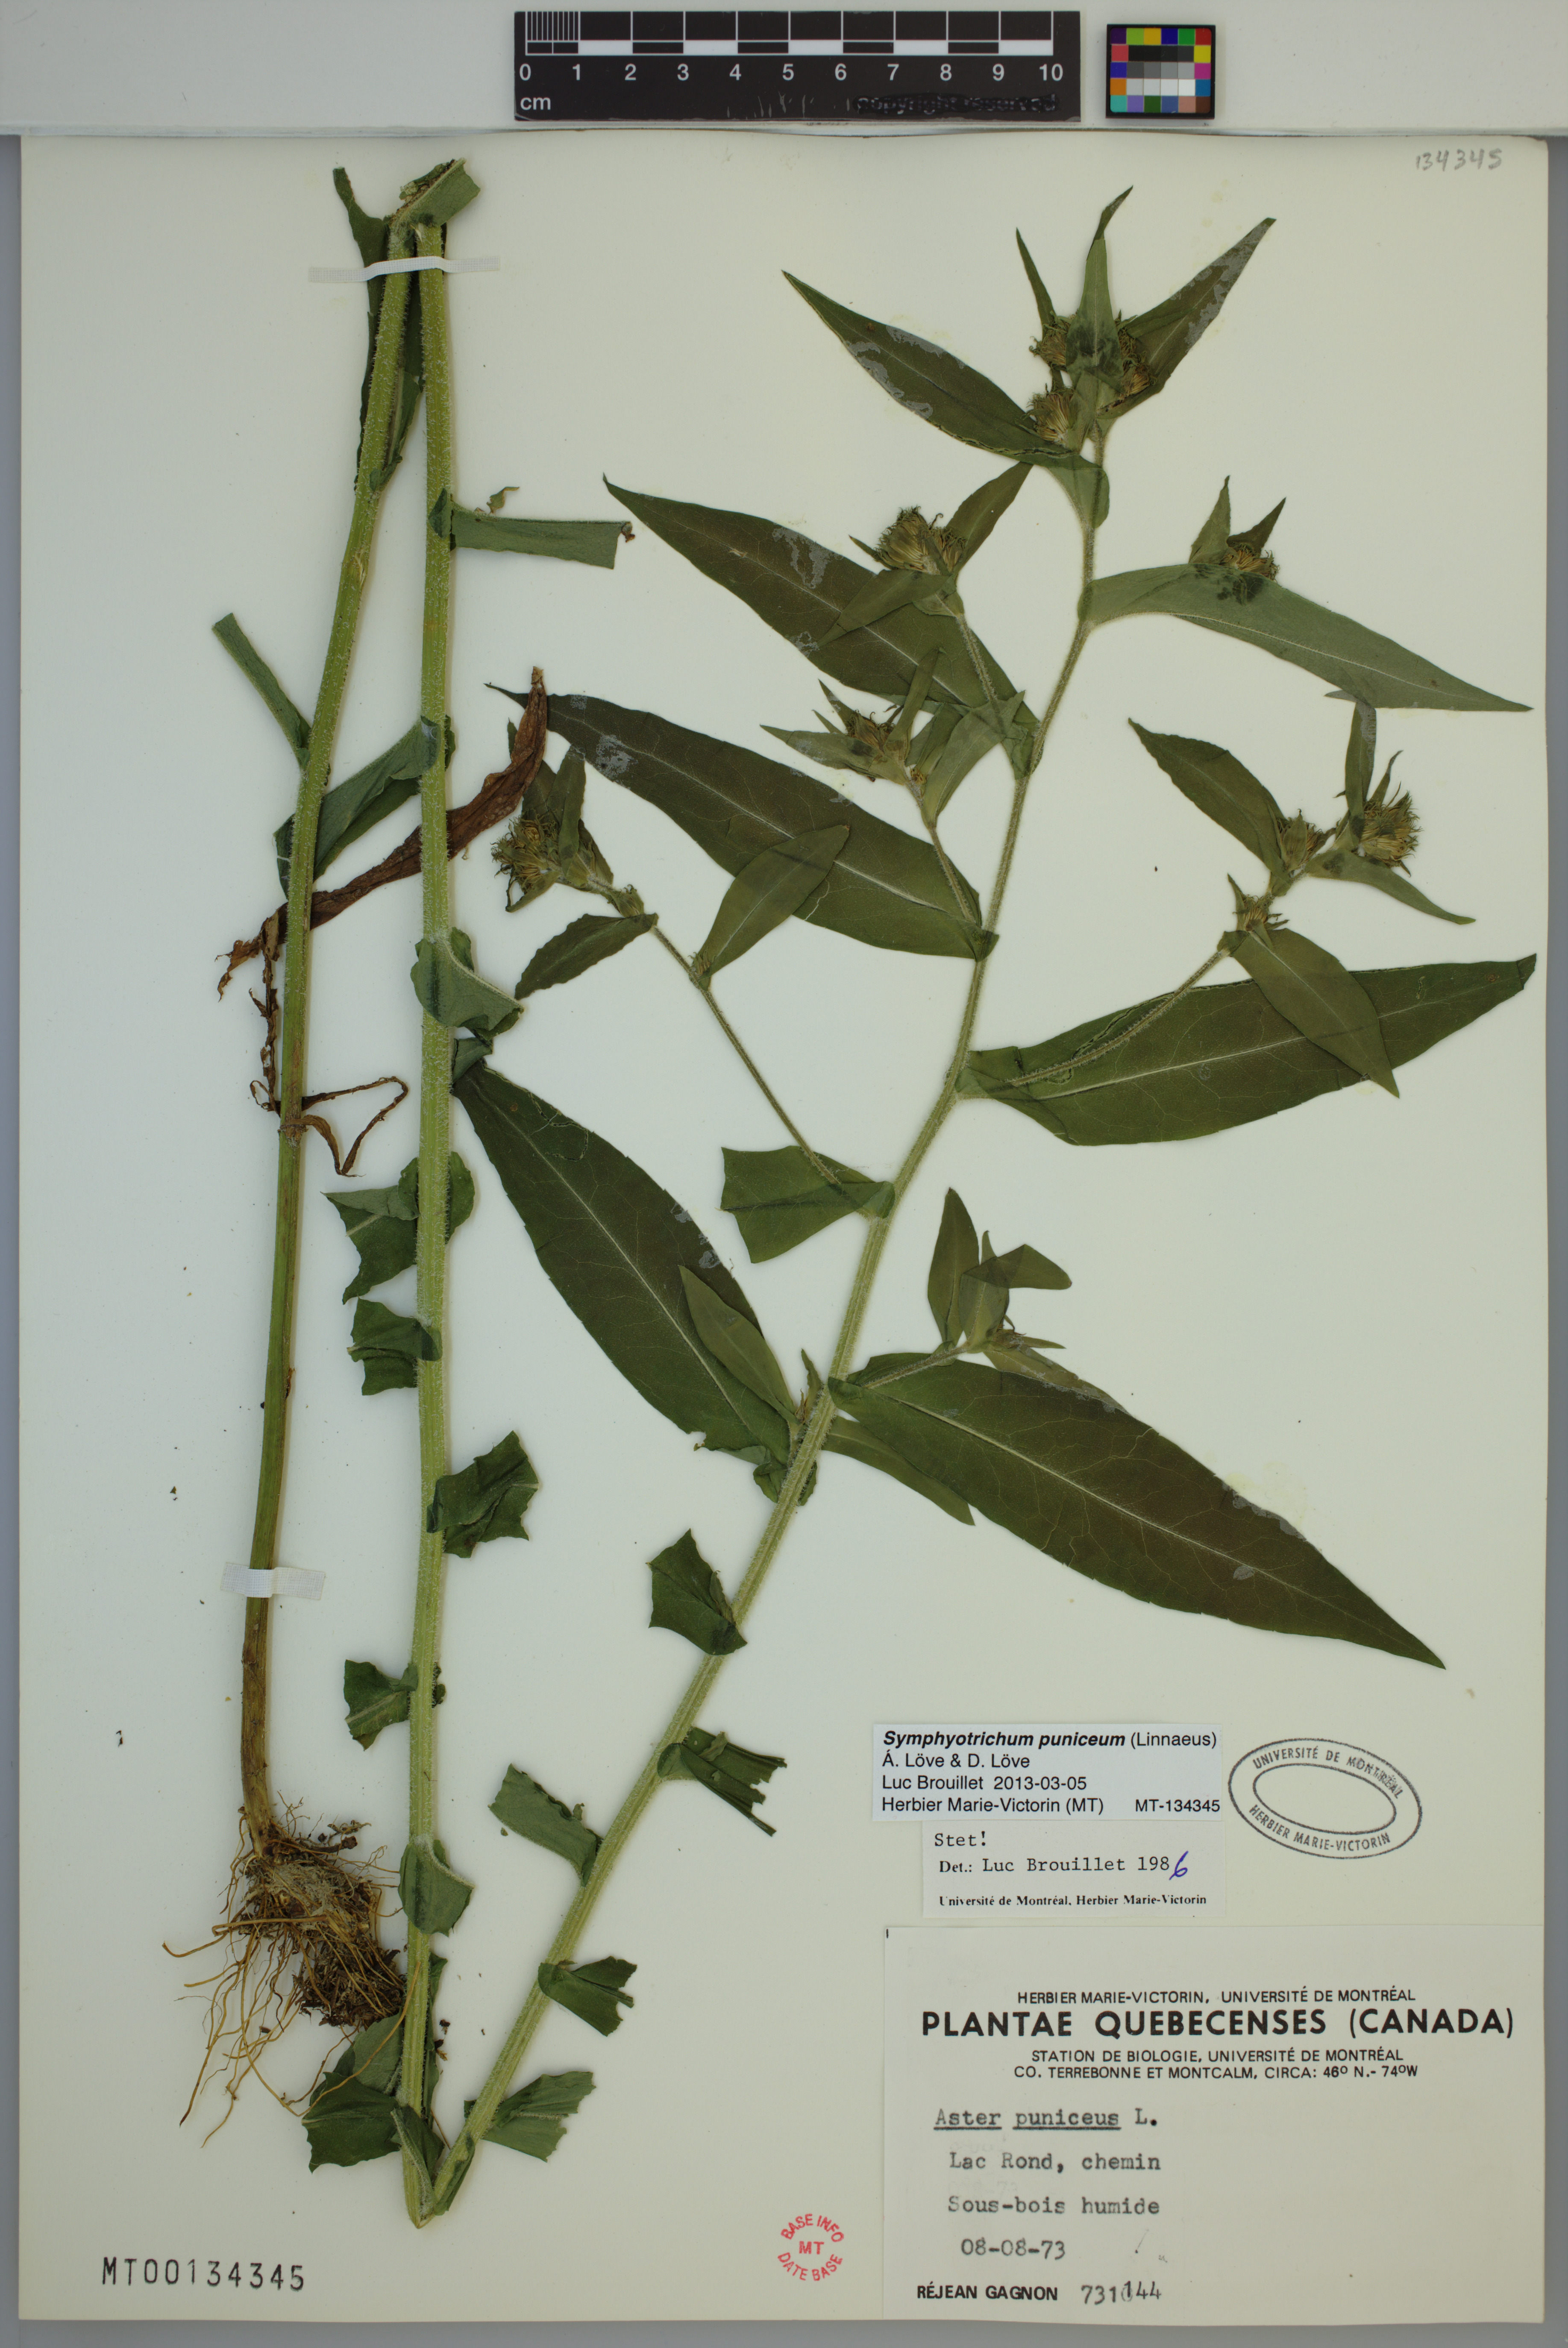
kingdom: Plantae
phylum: Tracheophyta
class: Magnoliopsida
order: Asterales
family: Asteraceae
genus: Symphyotrichum
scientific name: Symphyotrichum puniceum
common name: Bog aster
